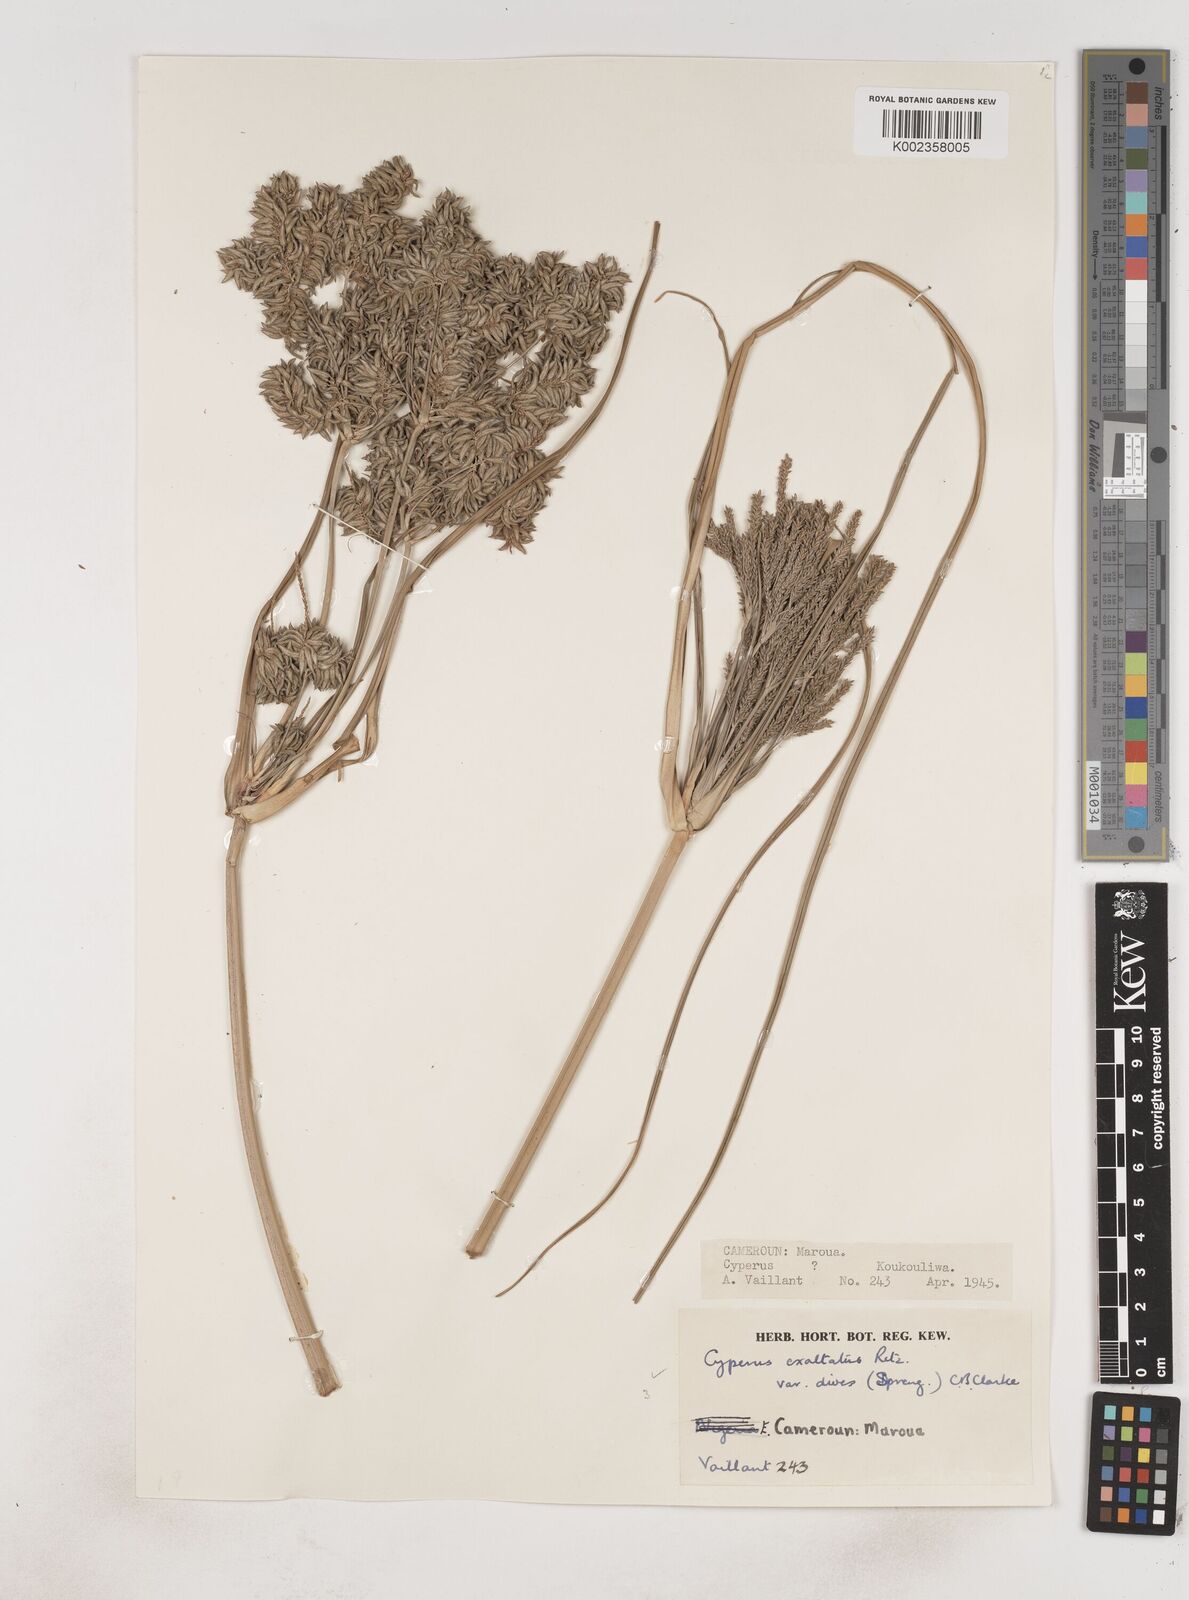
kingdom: Plantae
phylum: Tracheophyta
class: Liliopsida
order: Poales
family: Cyperaceae
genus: Cyperus
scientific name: Cyperus dives
